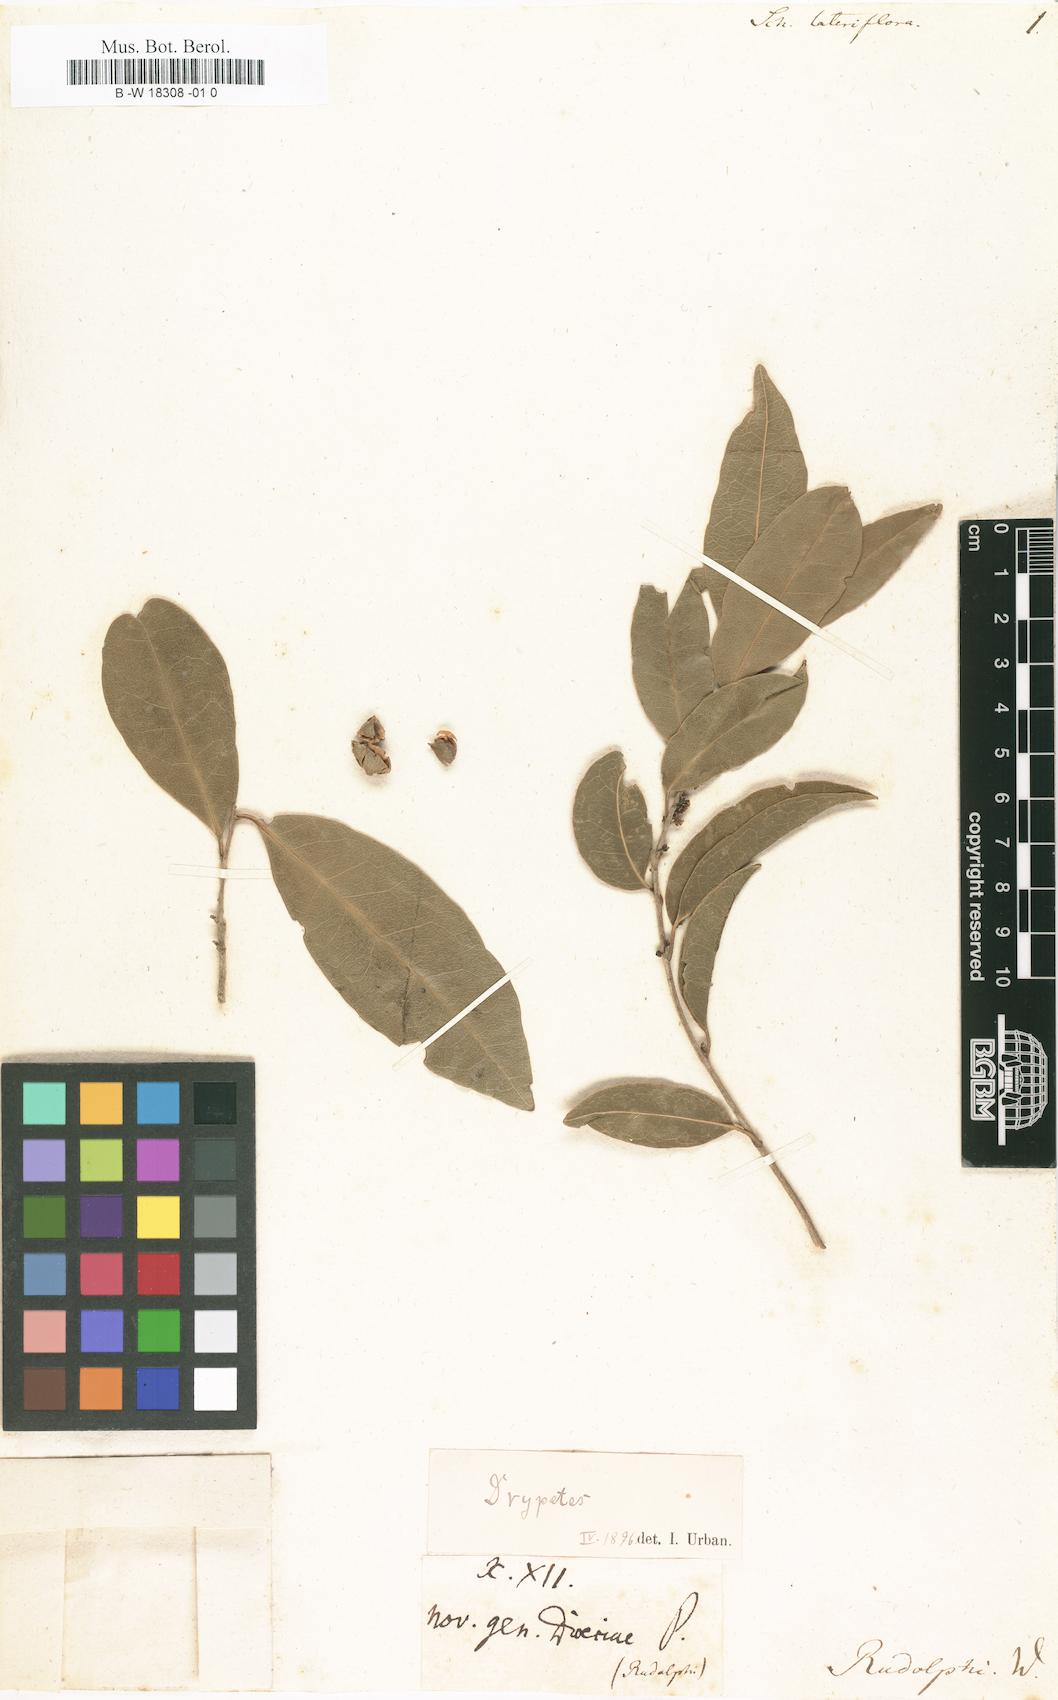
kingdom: Plantae
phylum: Tracheophyta
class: Magnoliopsida
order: Malpighiales
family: Putranjivaceae
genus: Drypetes
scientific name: Drypetes lateriflora
